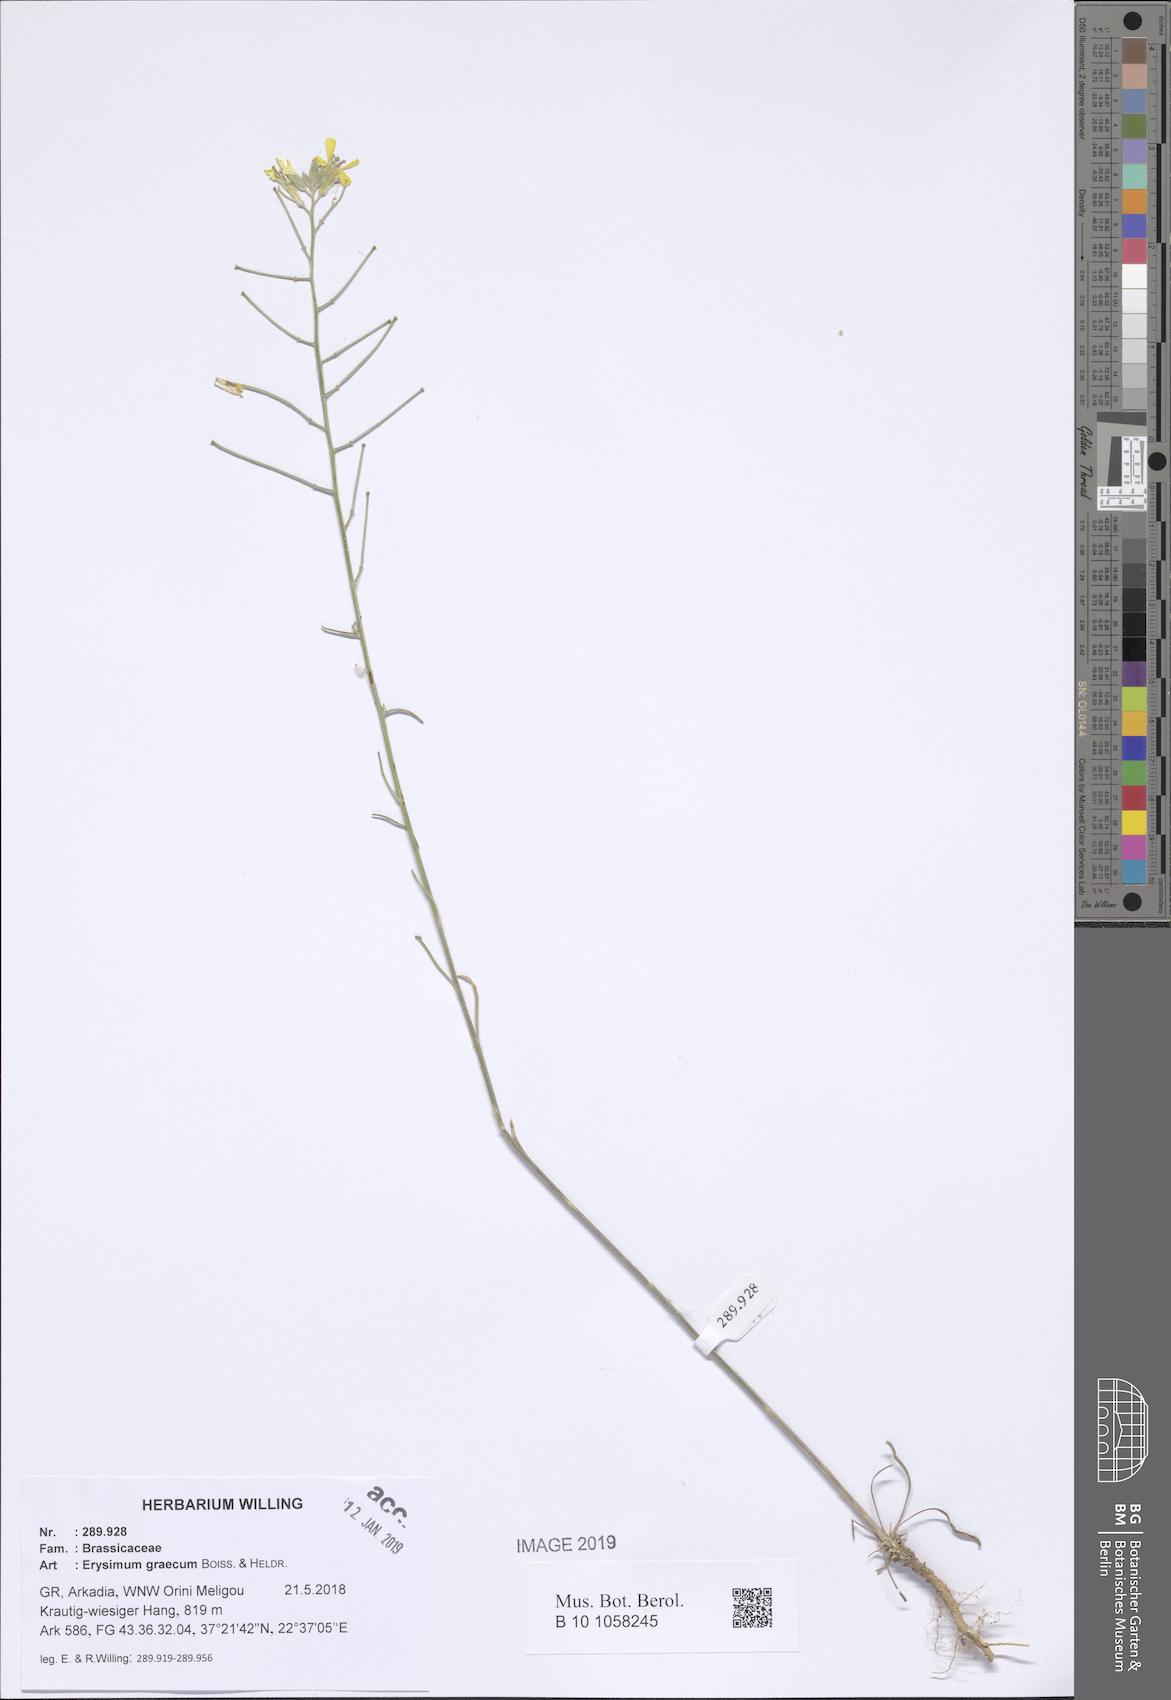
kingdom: Plantae
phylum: Tracheophyta
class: Magnoliopsida
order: Brassicales
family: Brassicaceae
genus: Erysimum
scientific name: Erysimum graecum
